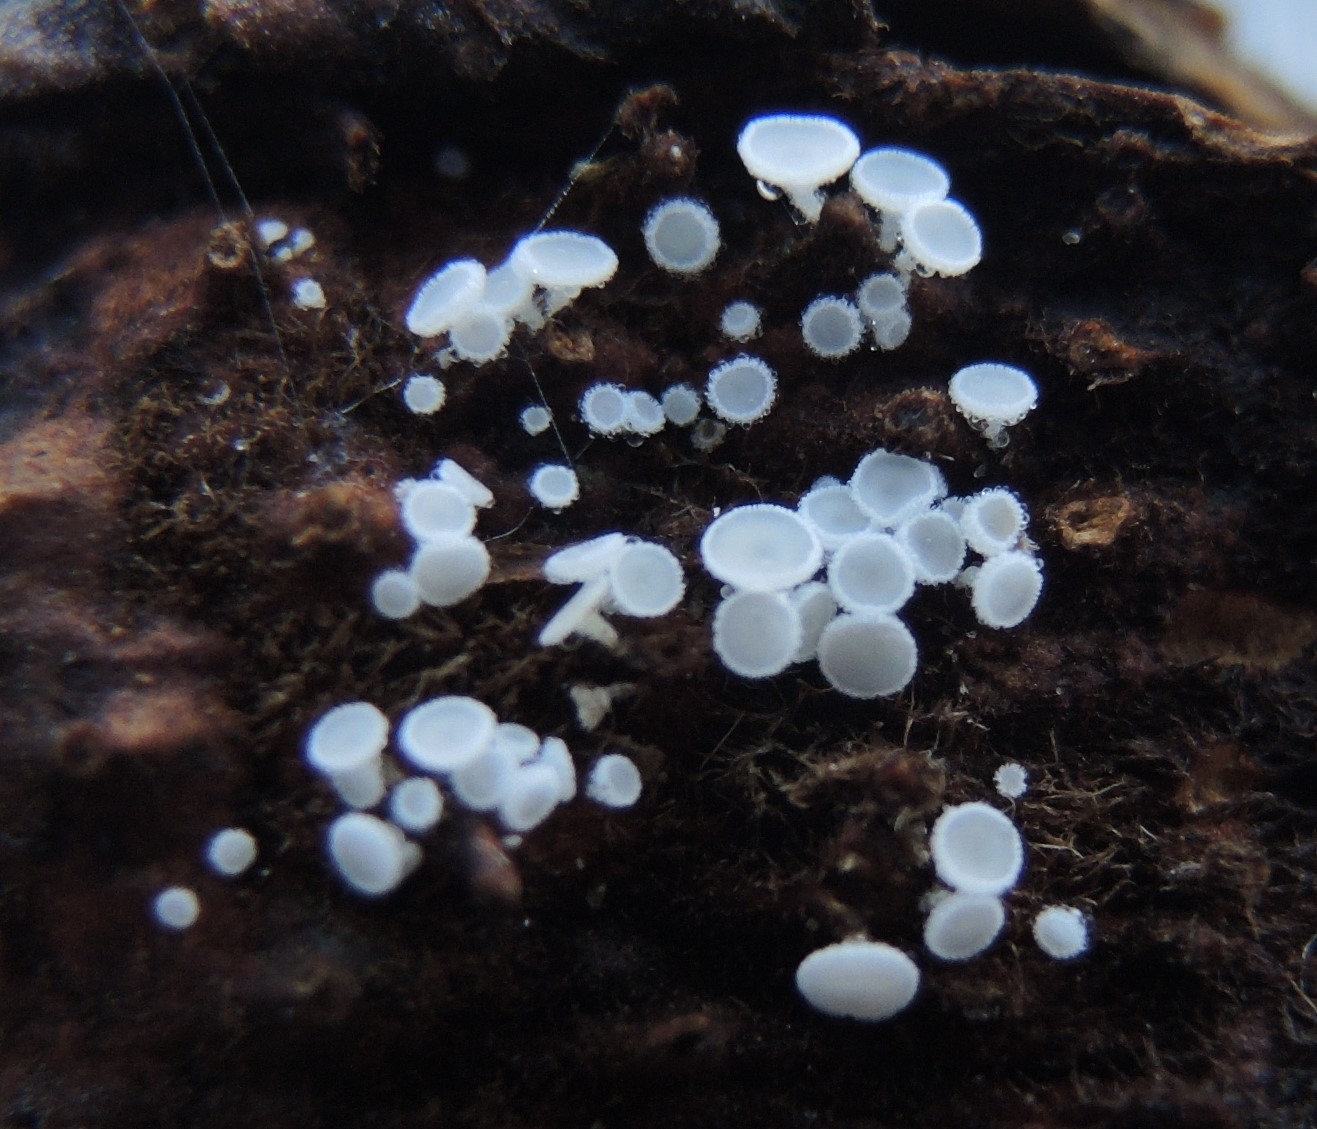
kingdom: Fungi
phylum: Ascomycota
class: Leotiomycetes
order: Helotiales
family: Lachnaceae
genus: Lachnum
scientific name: Lachnum virgineum
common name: jomfru-frynseskive
